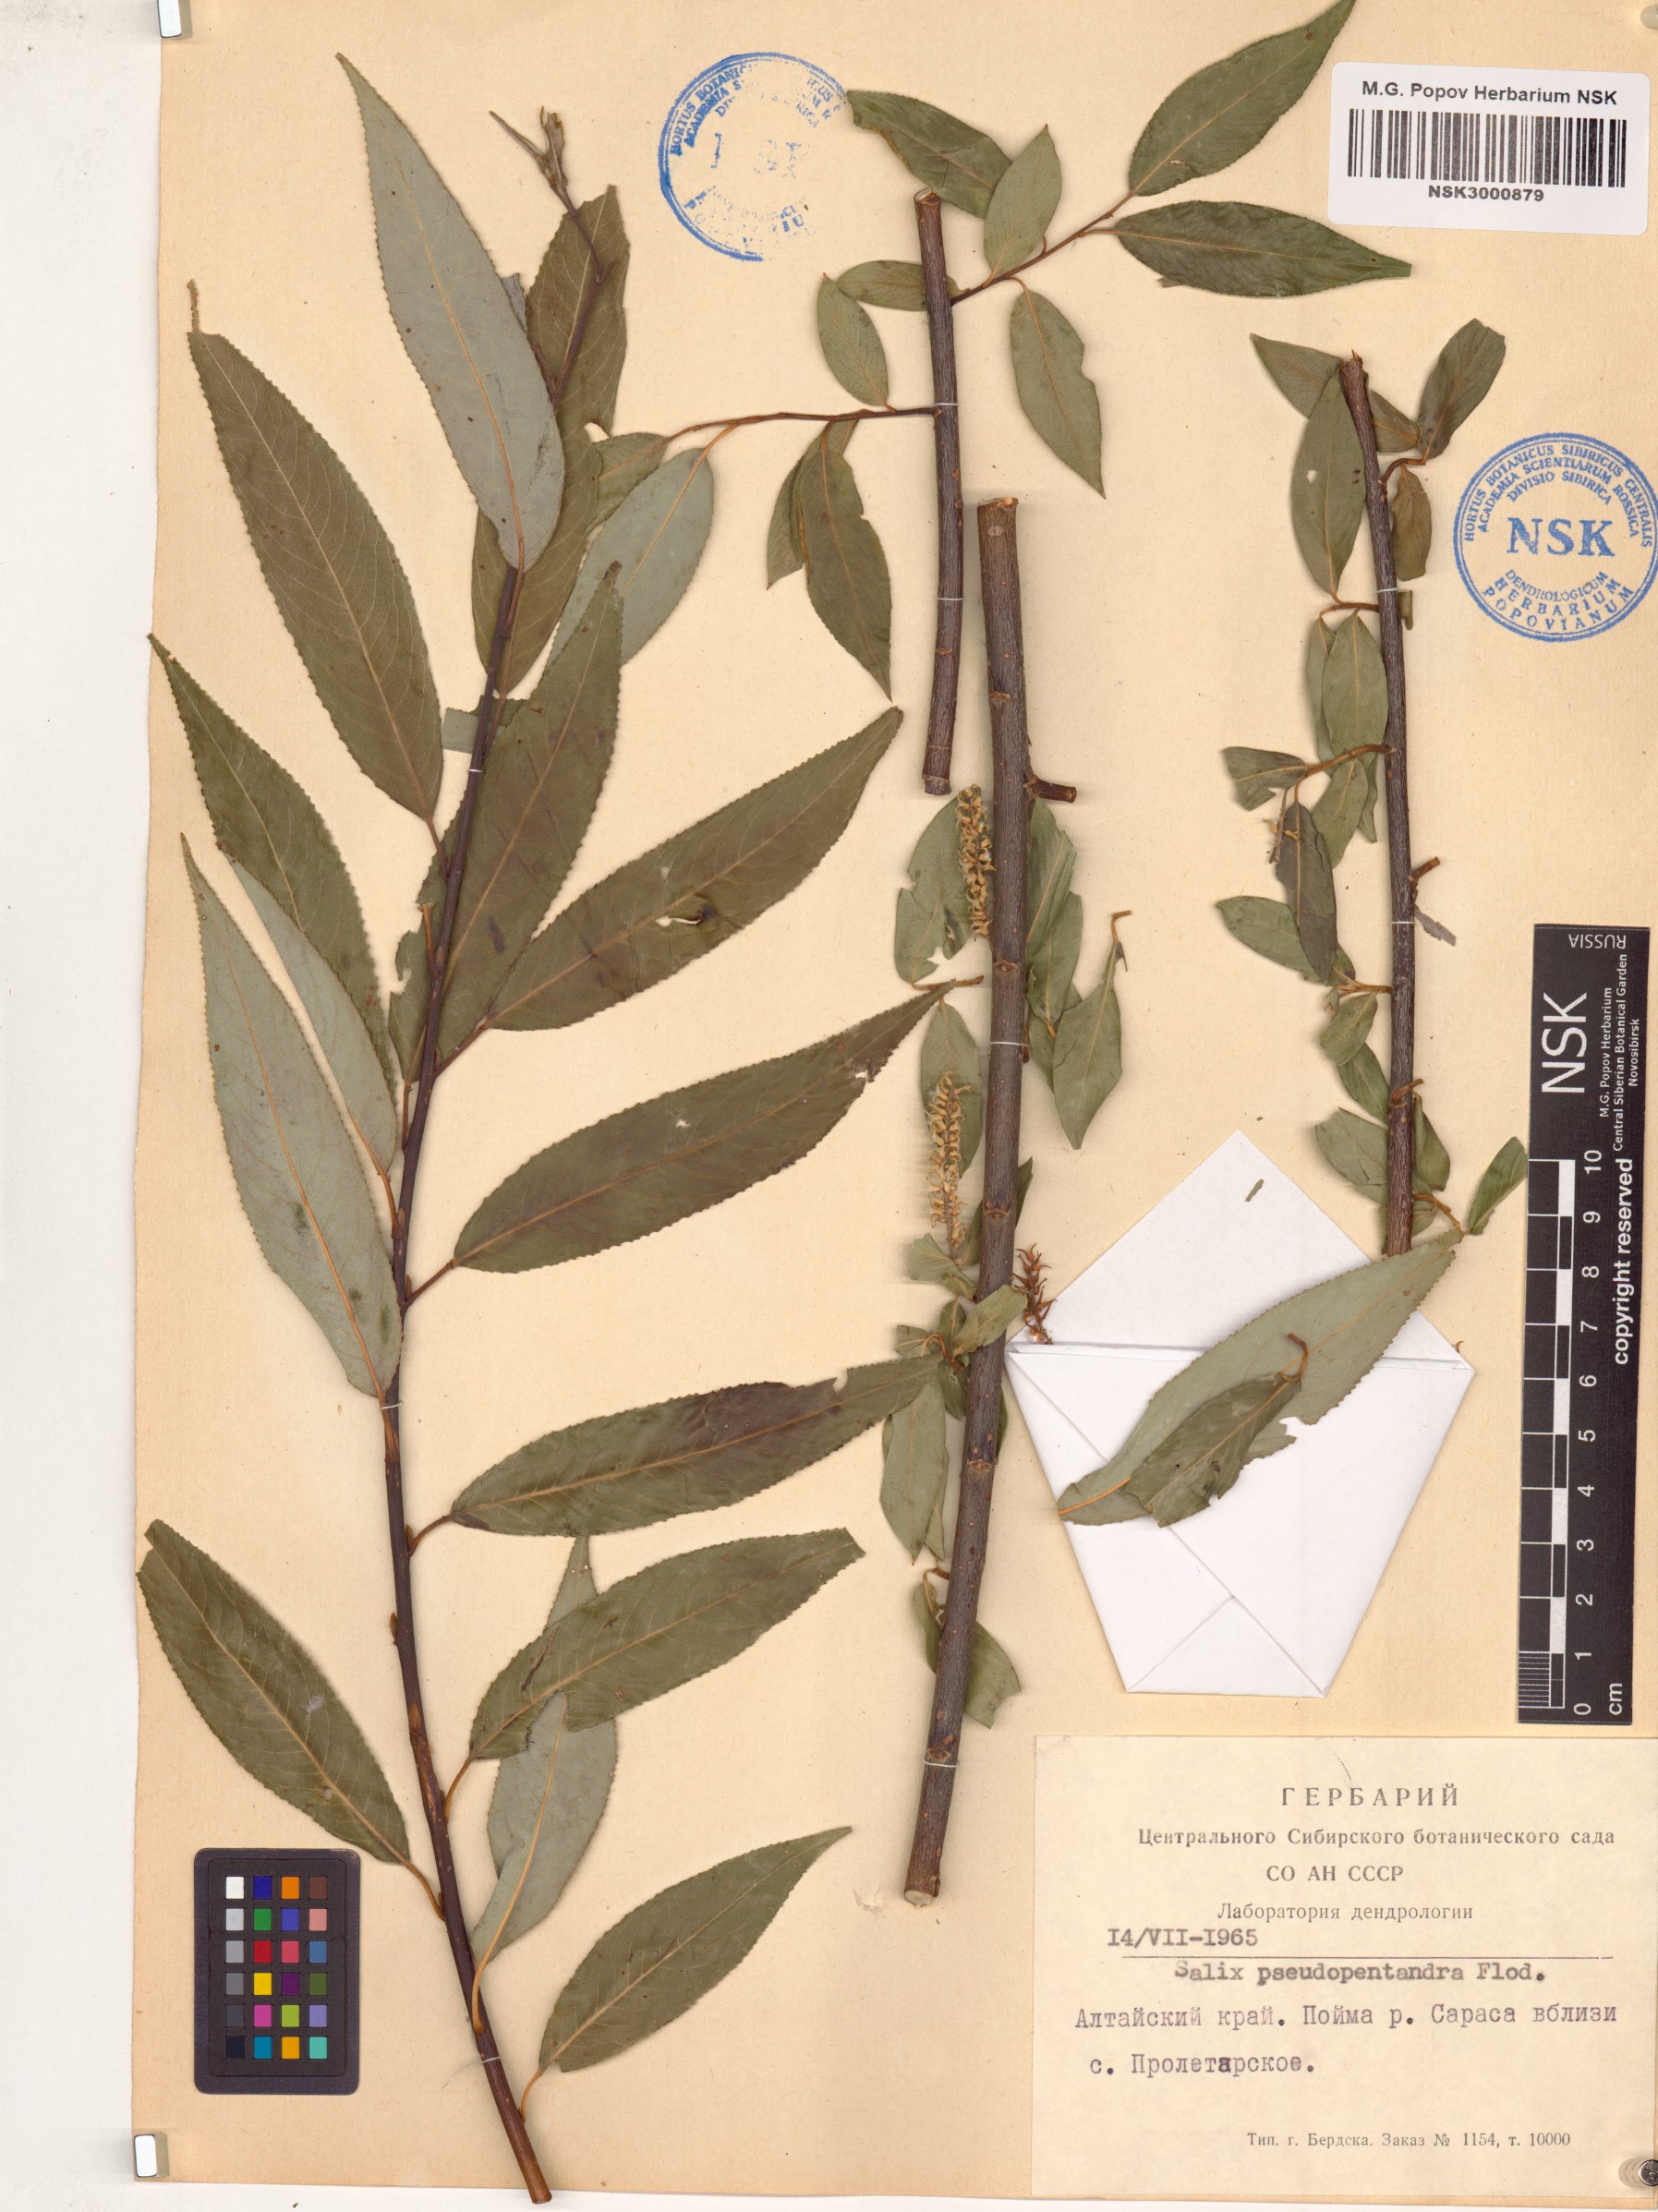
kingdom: Plantae
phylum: Tracheophyta
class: Magnoliopsida
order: Malpighiales
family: Salicaceae
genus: Salix
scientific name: Salix triandra
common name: Almond willow
